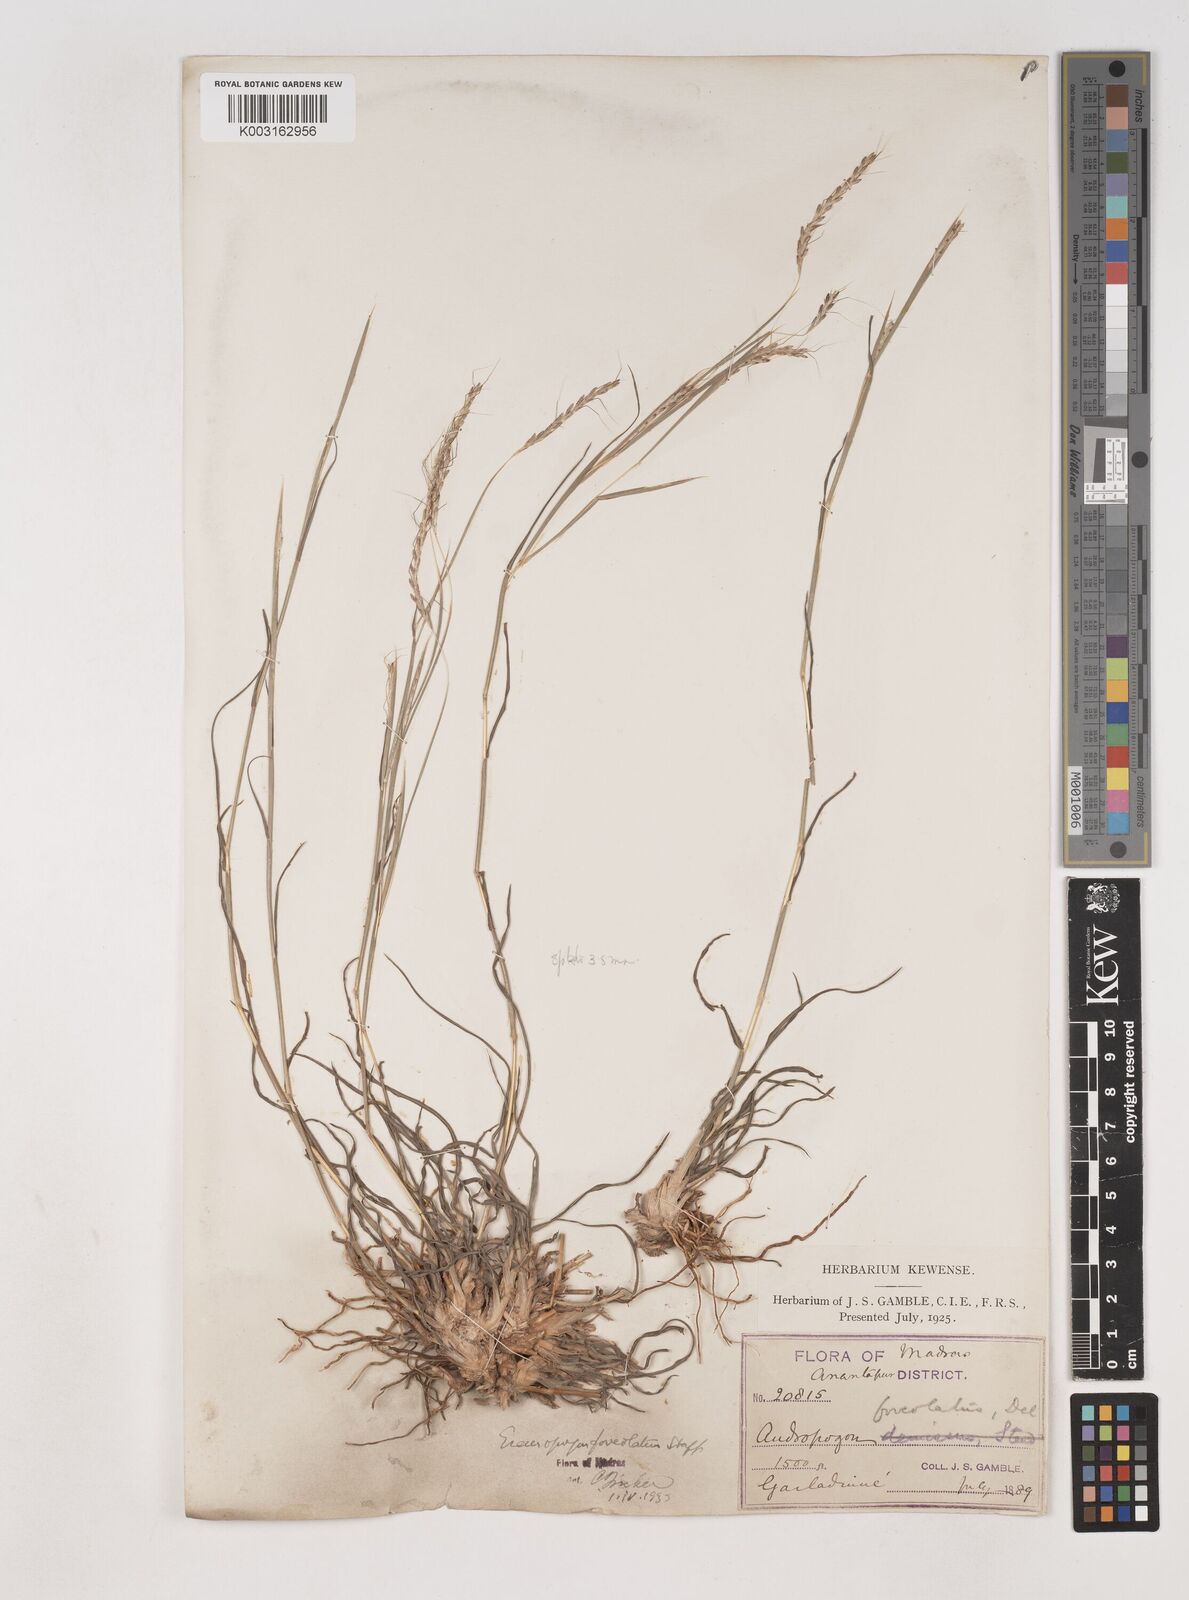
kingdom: Plantae
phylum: Tracheophyta
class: Liliopsida
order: Poales
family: Poaceae
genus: Dichanthium
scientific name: Dichanthium
